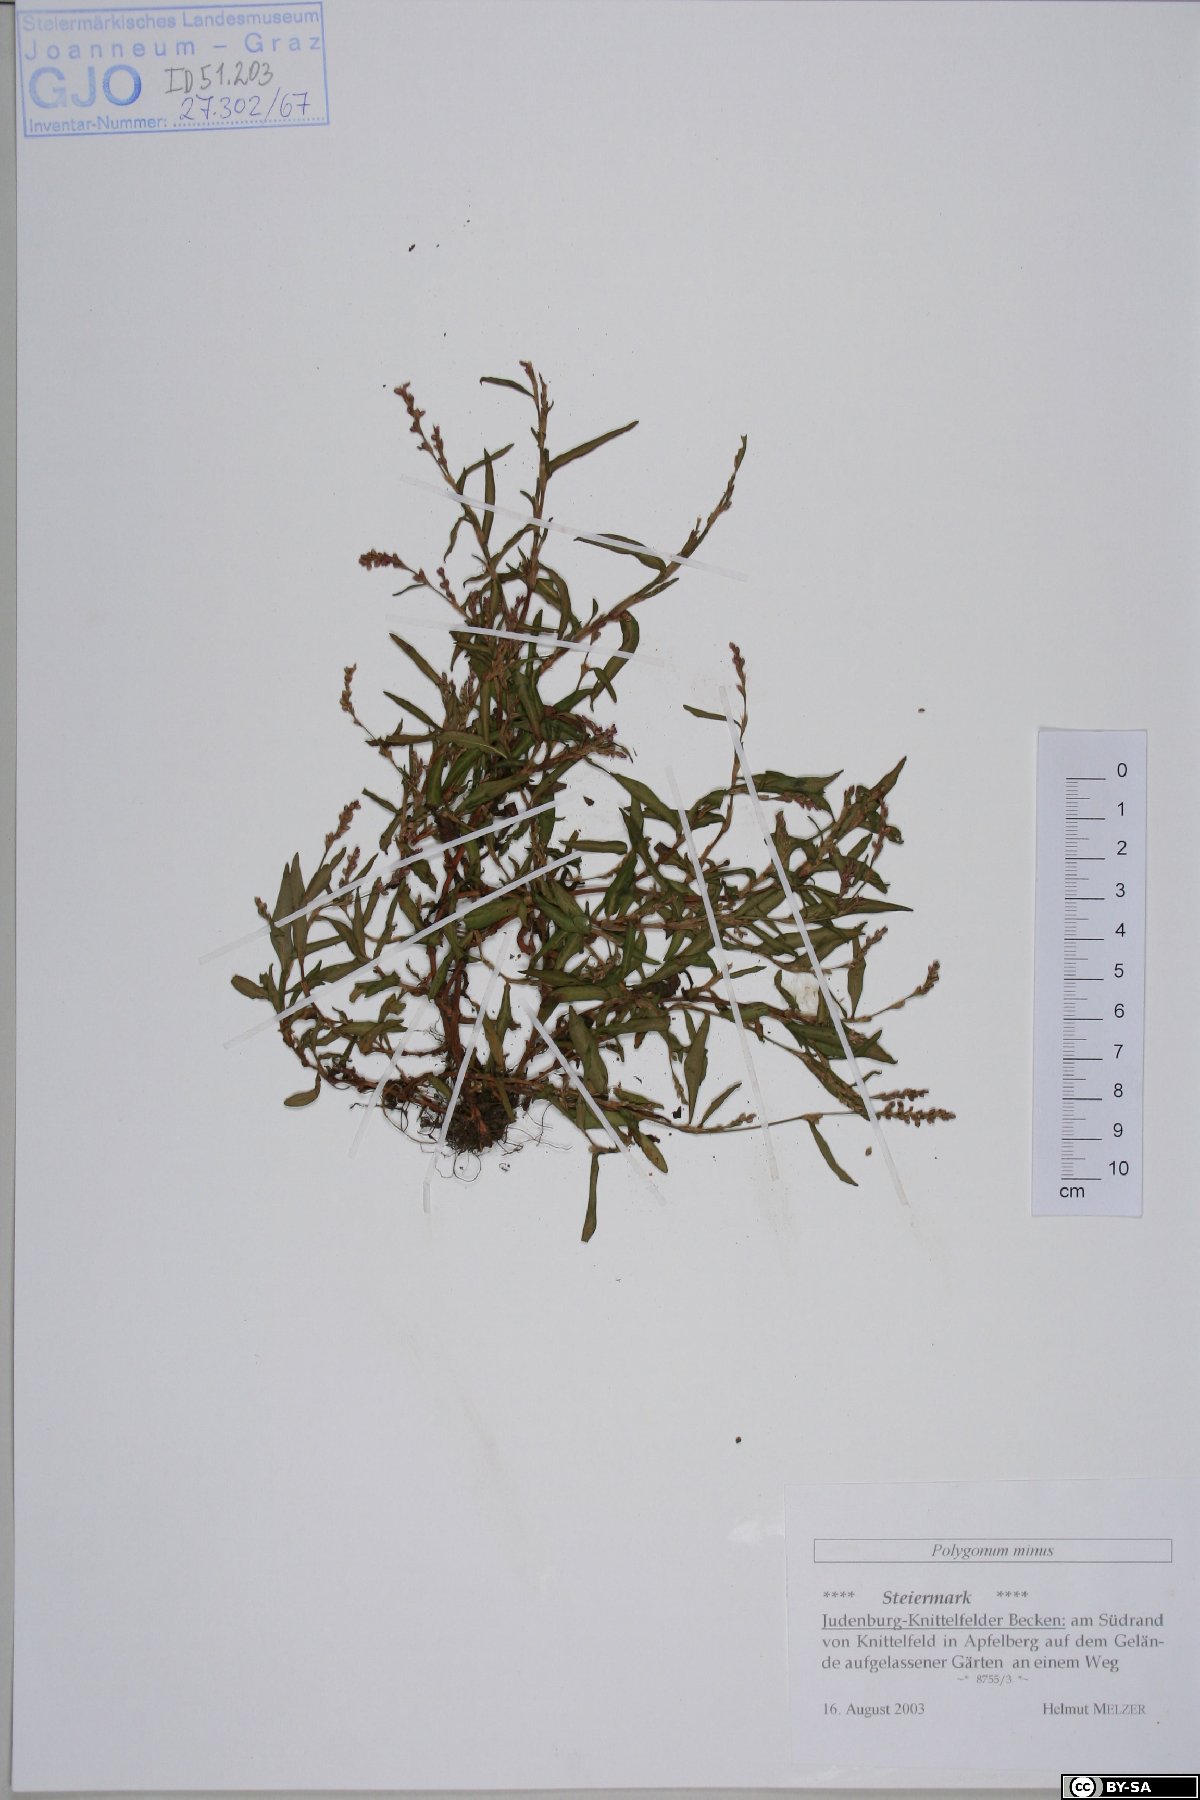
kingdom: Plantae
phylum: Tracheophyta
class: Magnoliopsida
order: Caryophyllales
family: Polygonaceae
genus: Persicaria
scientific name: Persicaria minor
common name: Small water-pepper
